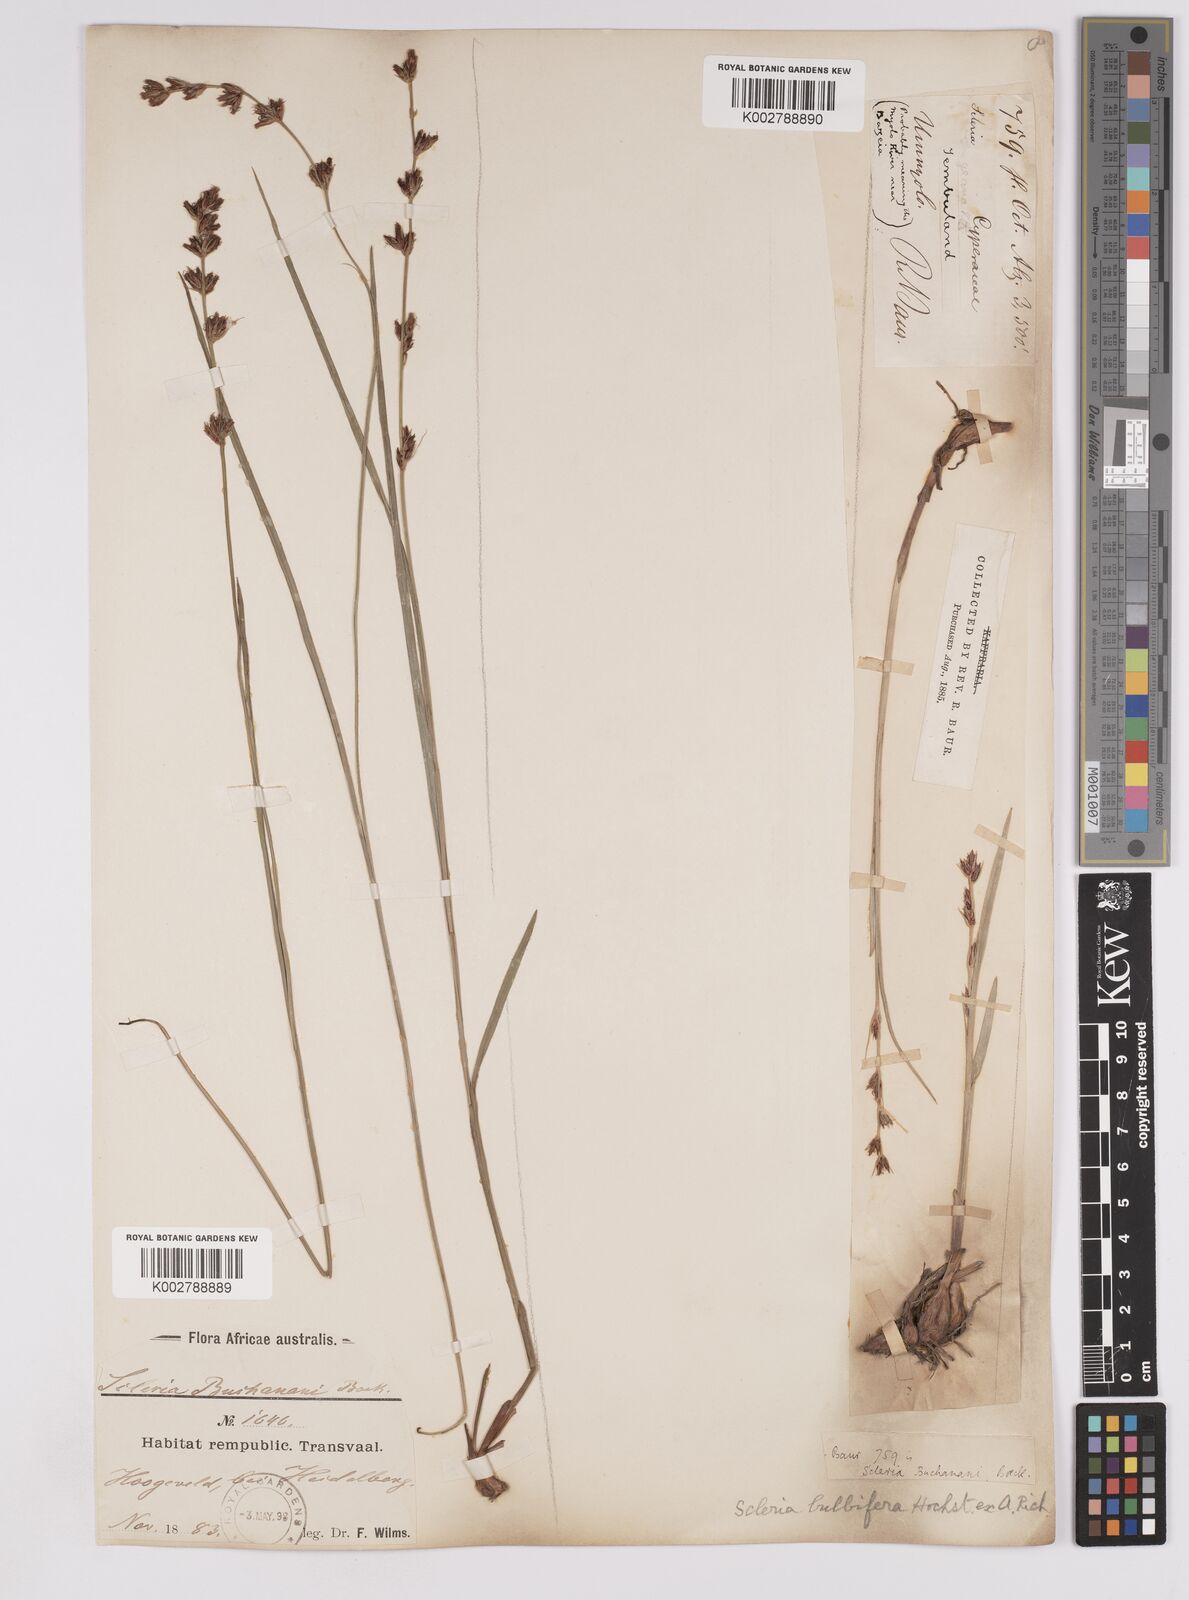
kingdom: Plantae
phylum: Tracheophyta
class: Liliopsida
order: Poales
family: Cyperaceae
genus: Scleria
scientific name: Scleria bulbifera
